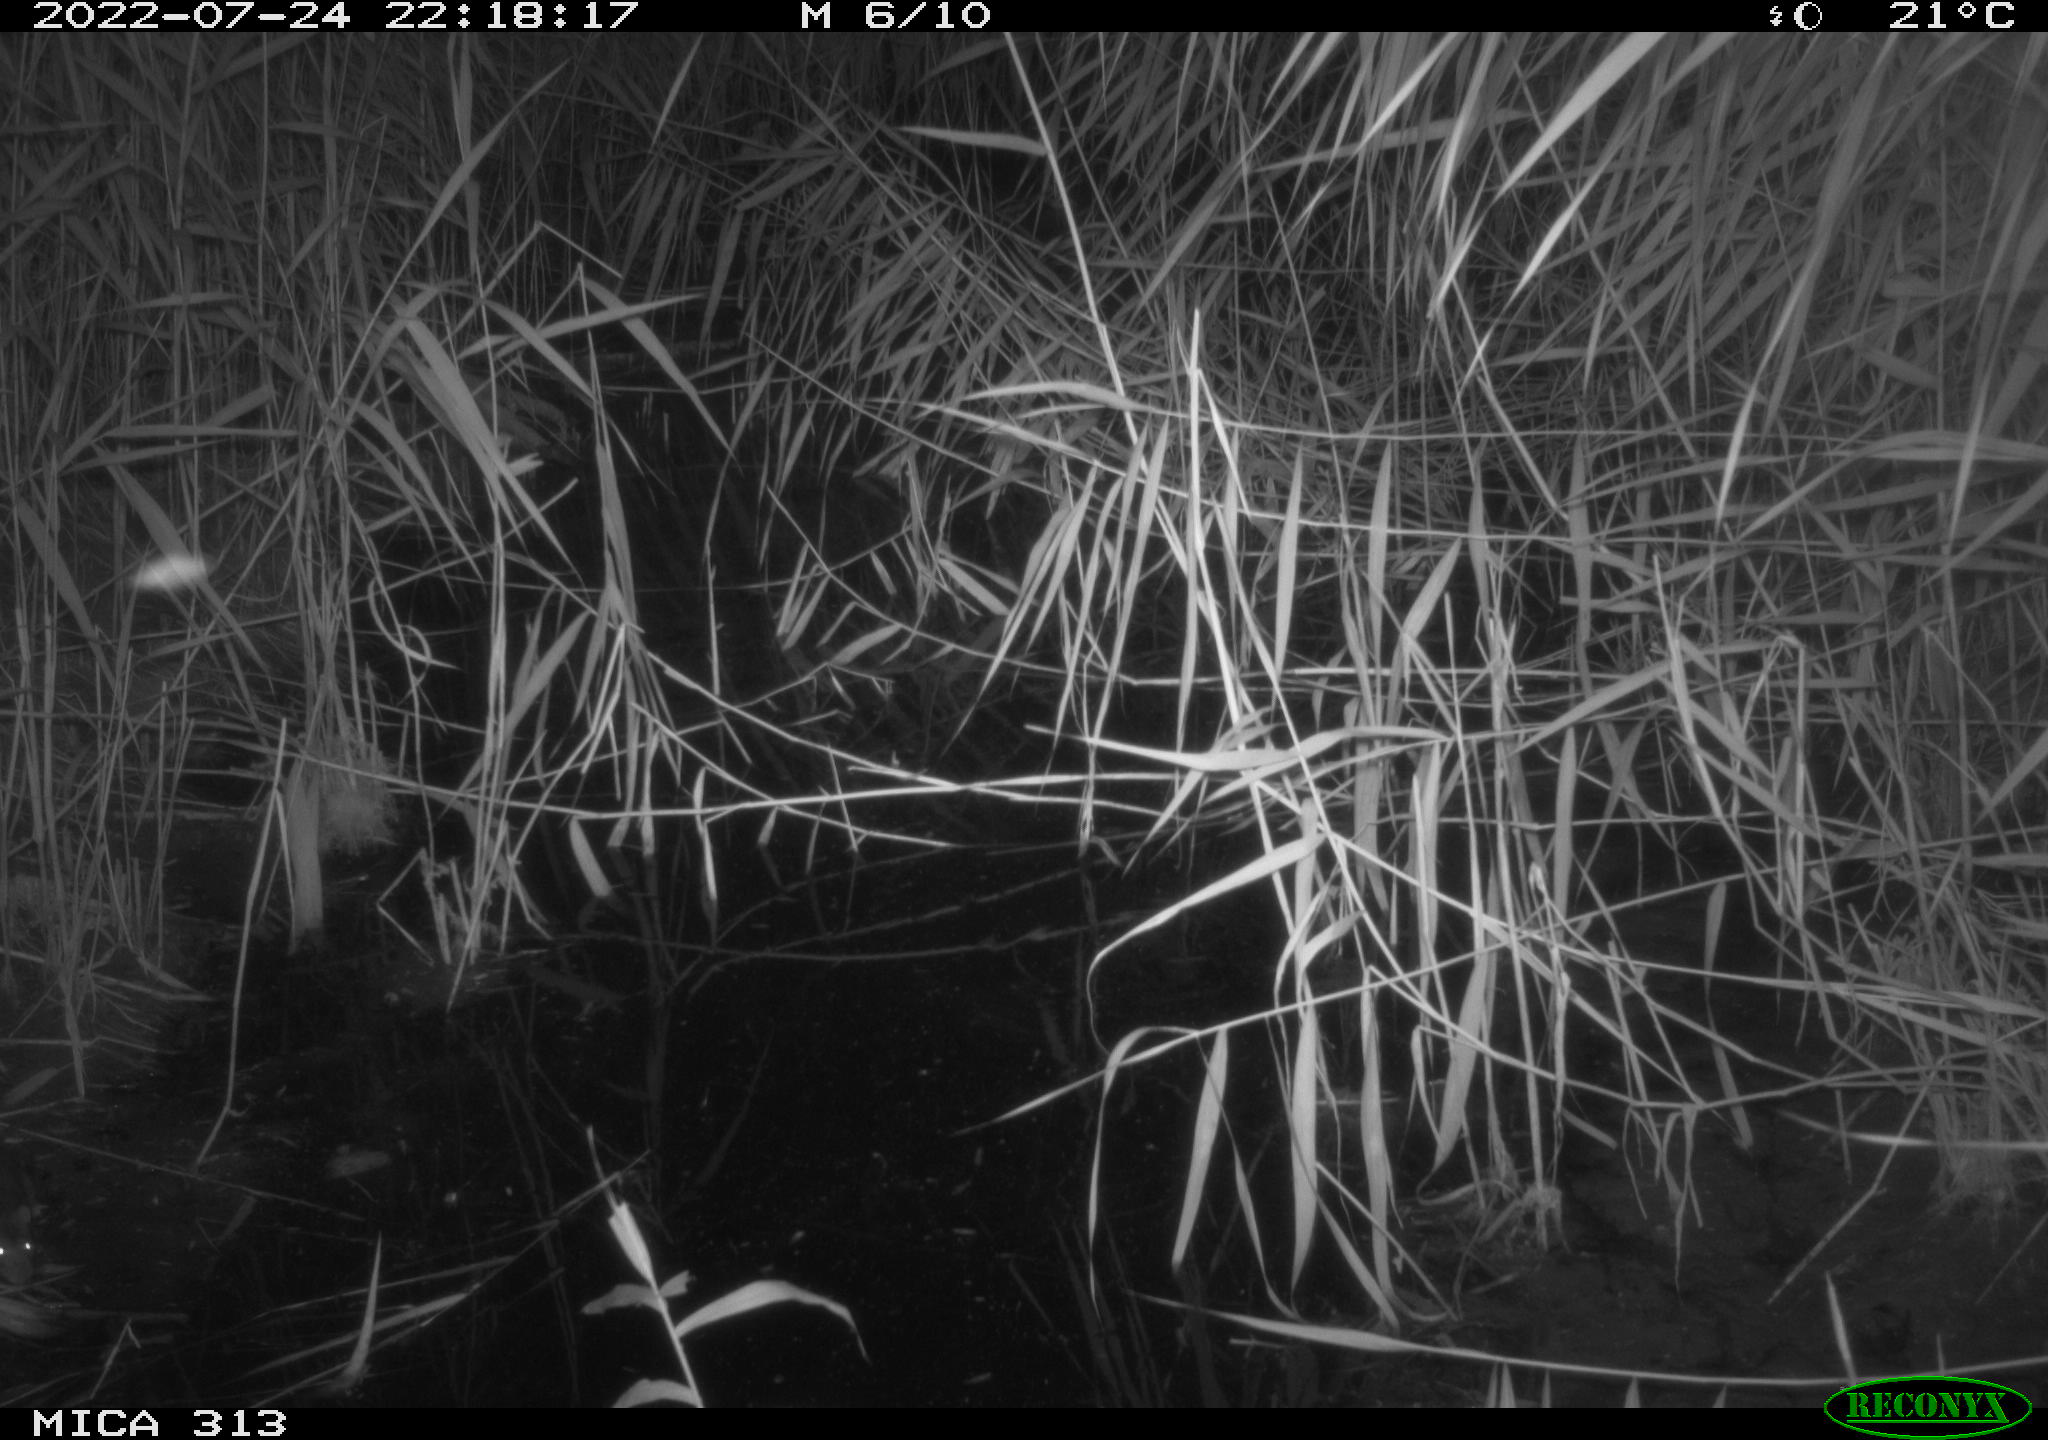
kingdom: Animalia
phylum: Chordata
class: Mammalia
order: Rodentia
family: Muridae
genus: Rattus
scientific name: Rattus norvegicus
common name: Brown rat
